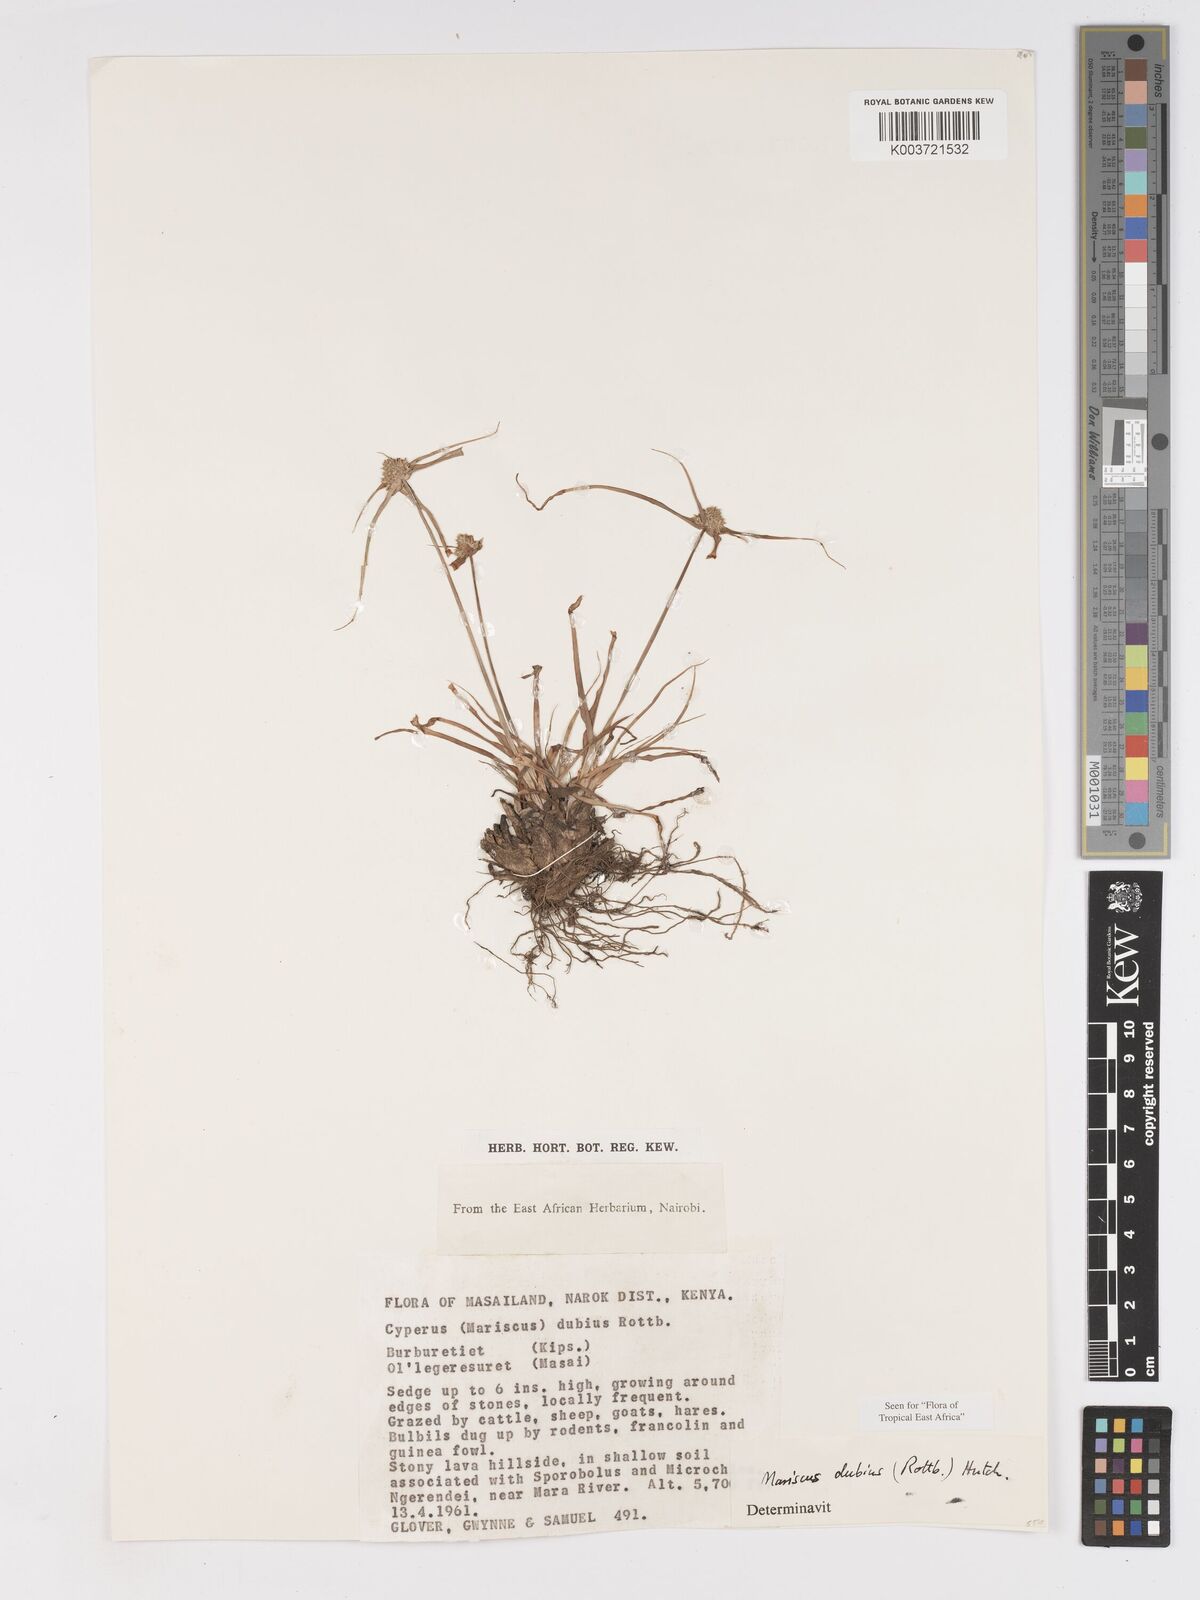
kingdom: Plantae
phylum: Tracheophyta
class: Liliopsida
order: Poales
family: Cyperaceae
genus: Cyperus
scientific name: Cyperus dubius
